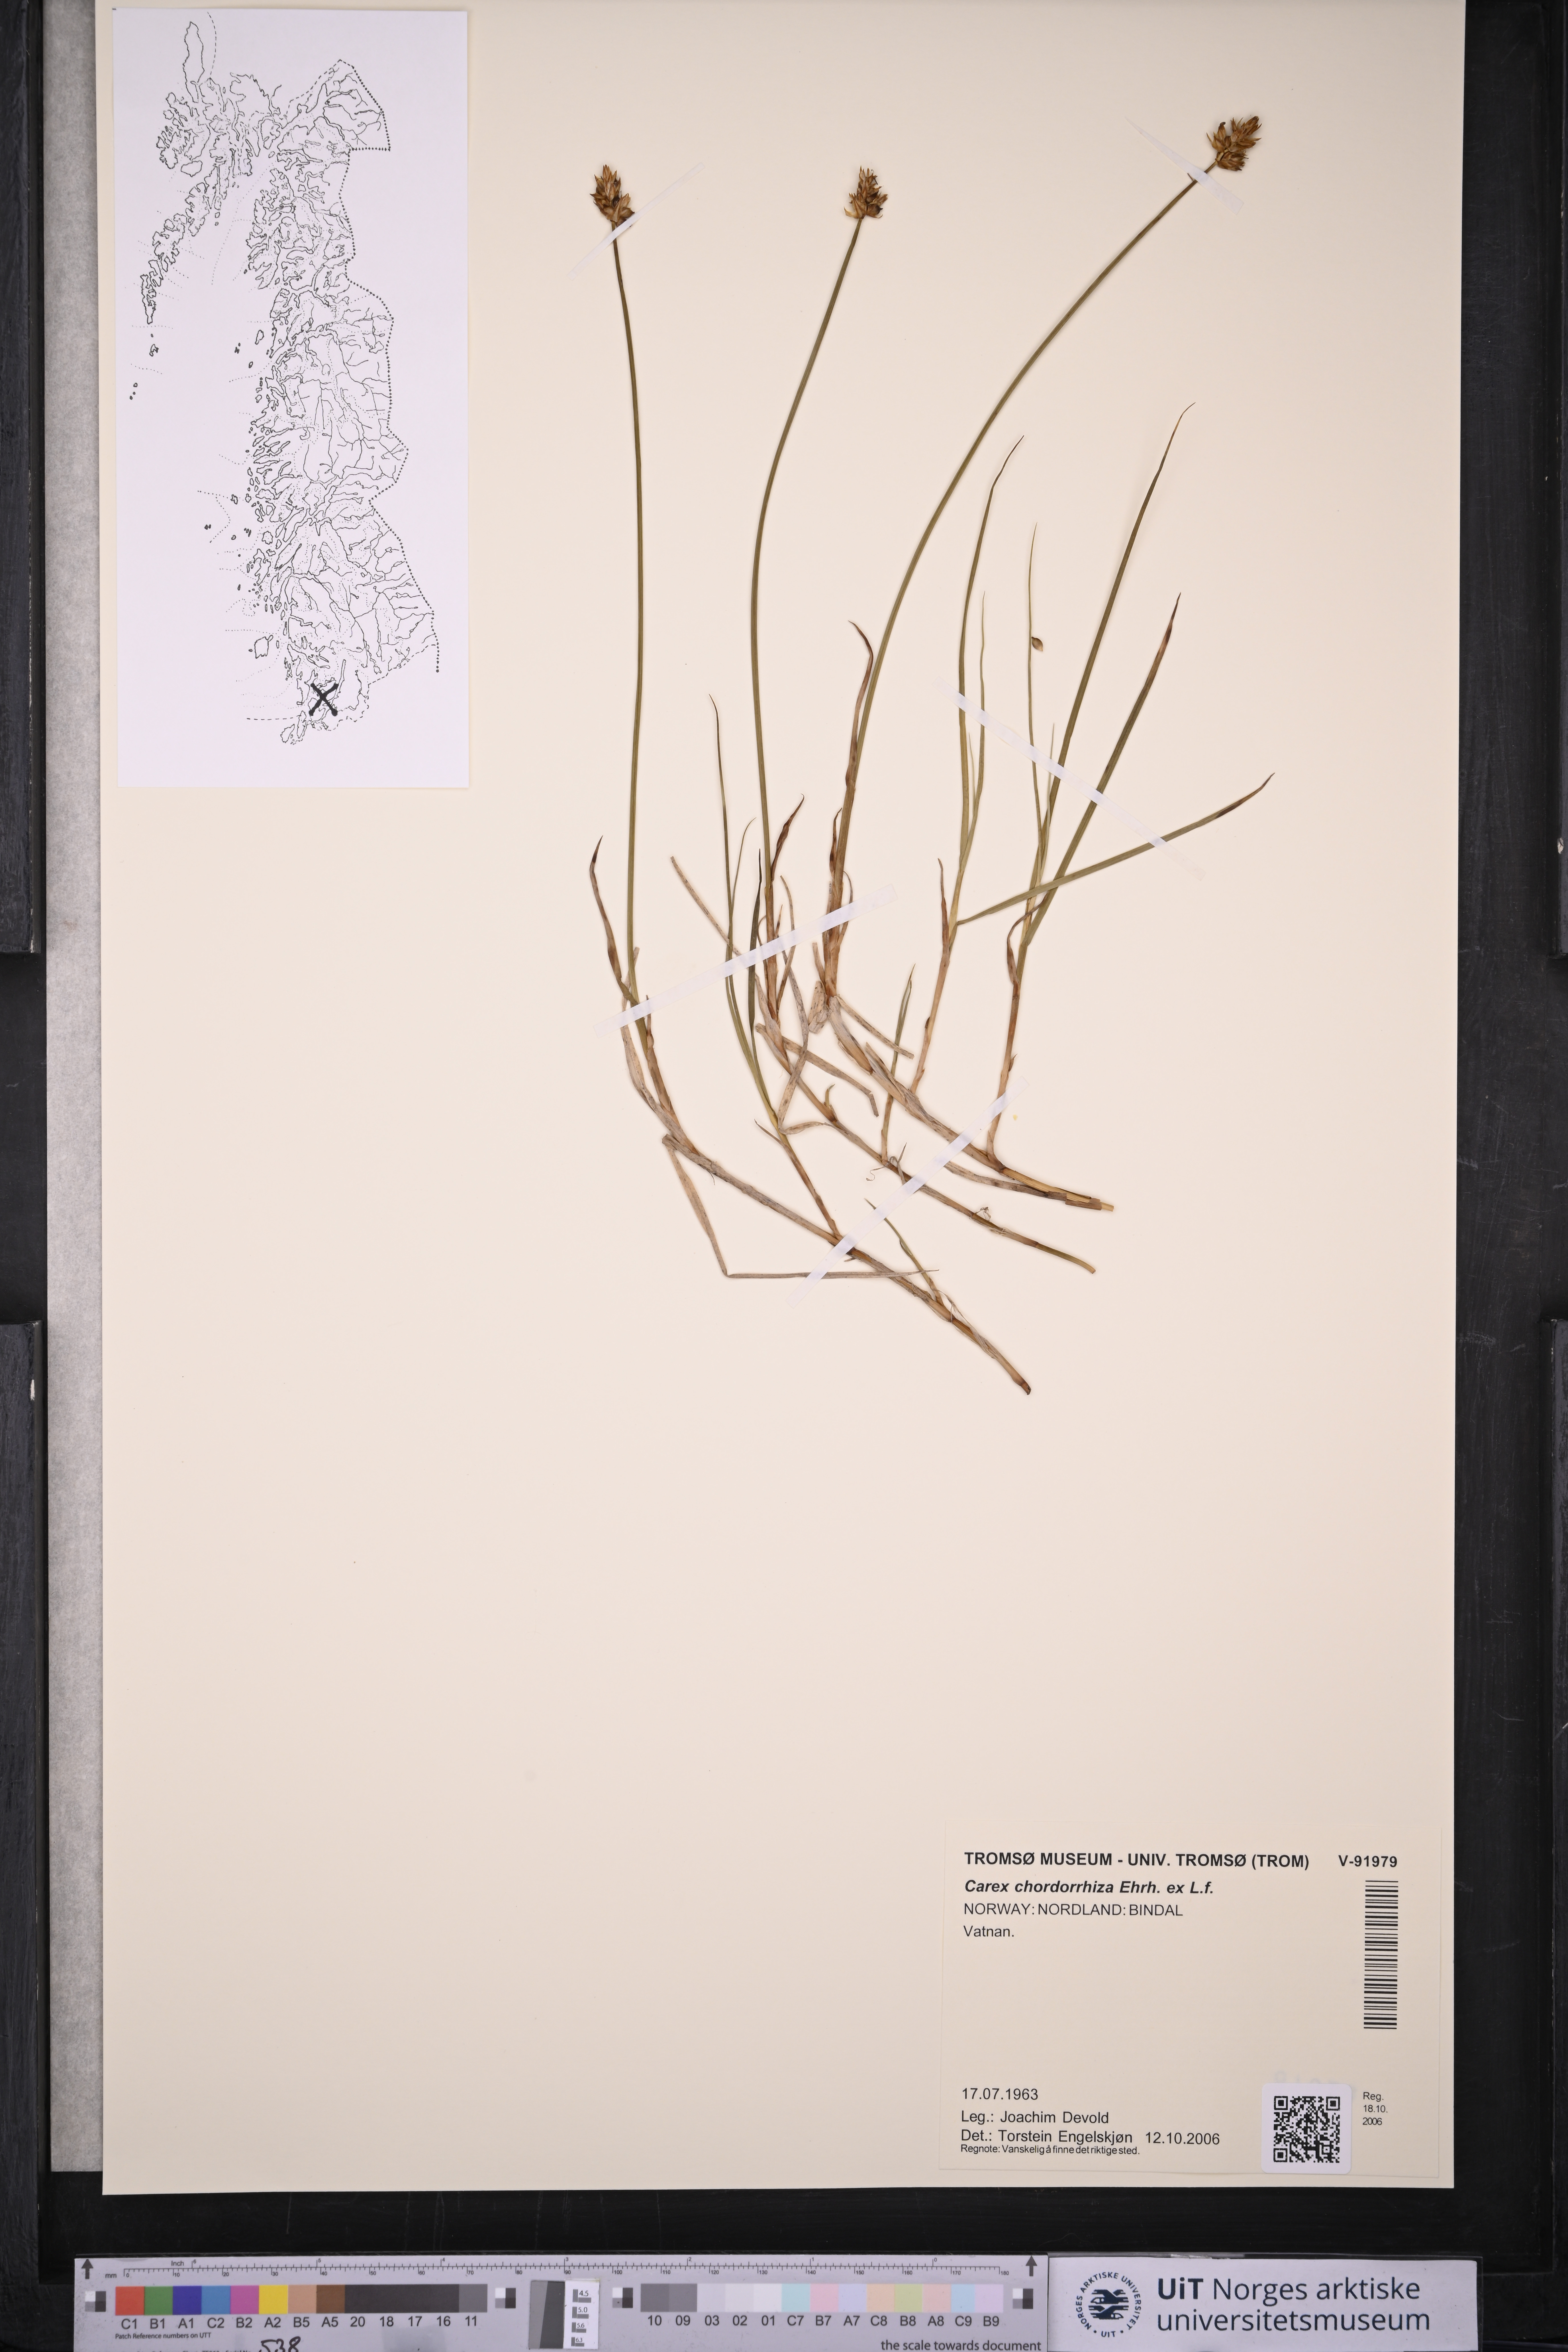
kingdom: Plantae
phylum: Tracheophyta
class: Liliopsida
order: Poales
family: Cyperaceae
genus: Carex
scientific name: Carex chordorrhiza
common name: String sedge
